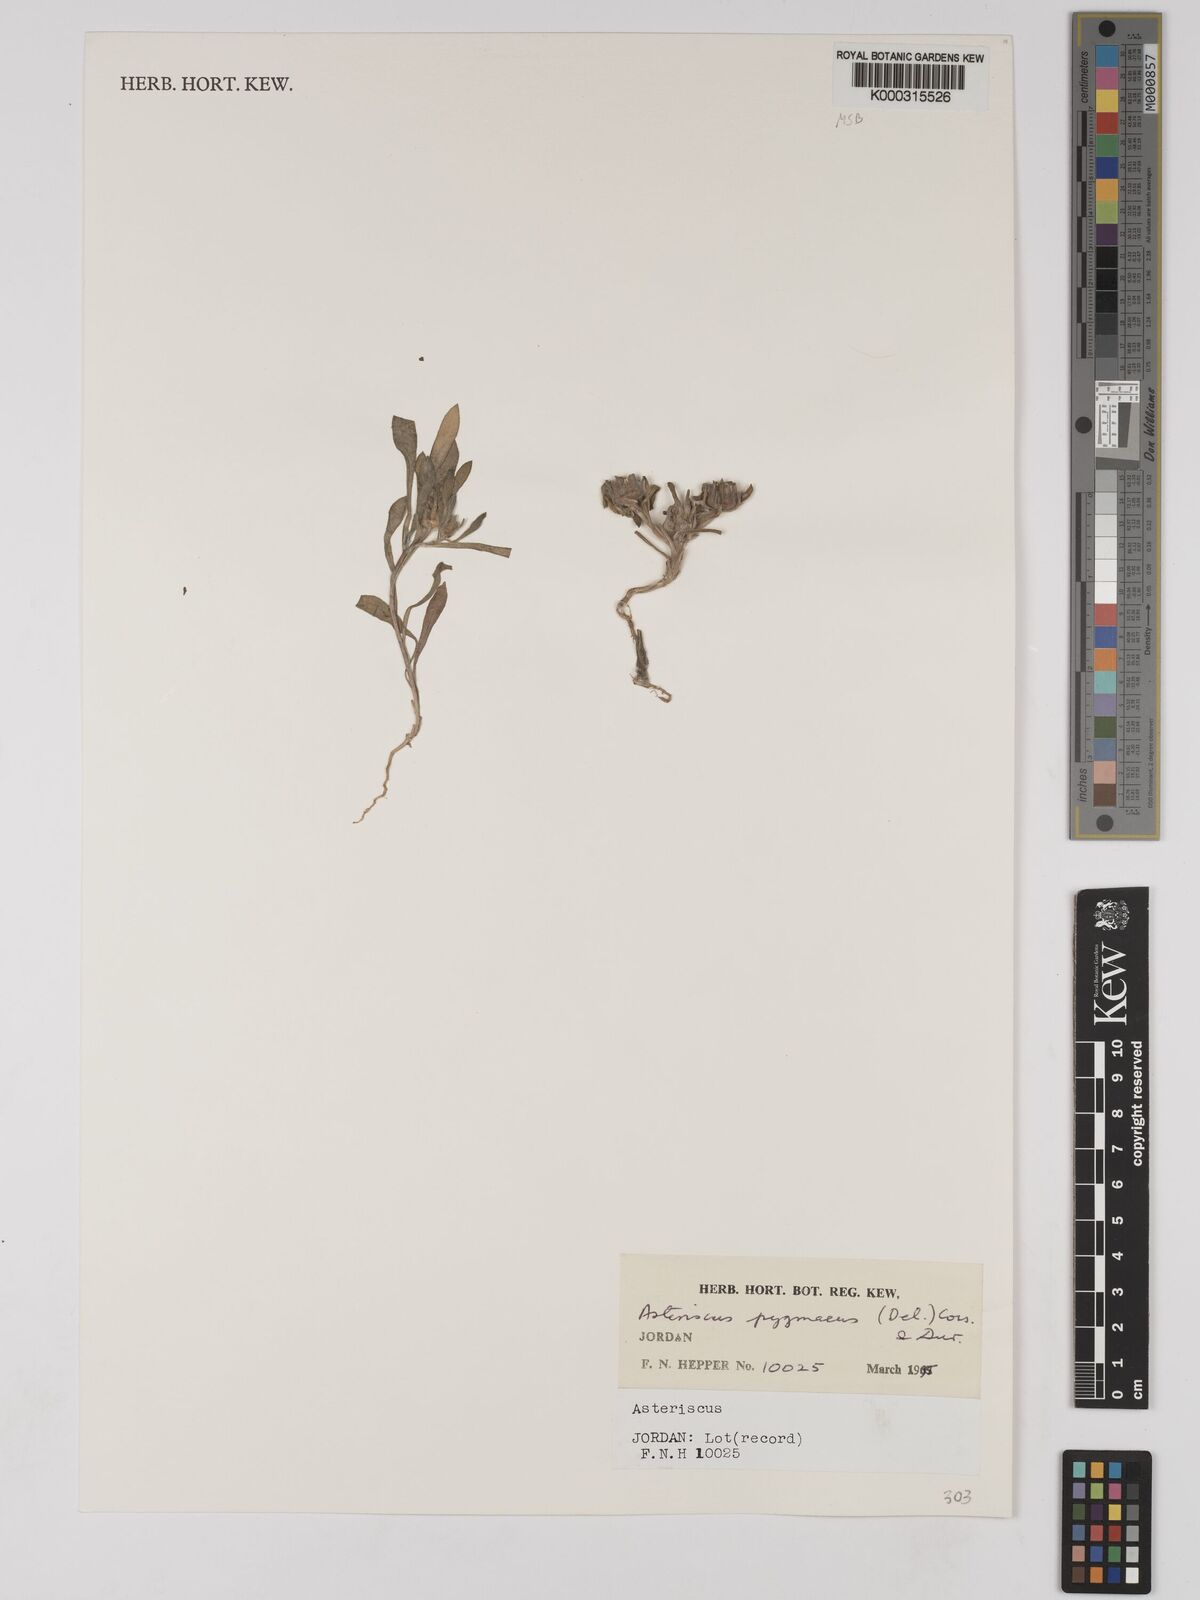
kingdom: Plantae
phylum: Tracheophyta
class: Magnoliopsida
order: Asterales
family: Asteraceae
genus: Pallenis
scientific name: Pallenis hierochuntica
